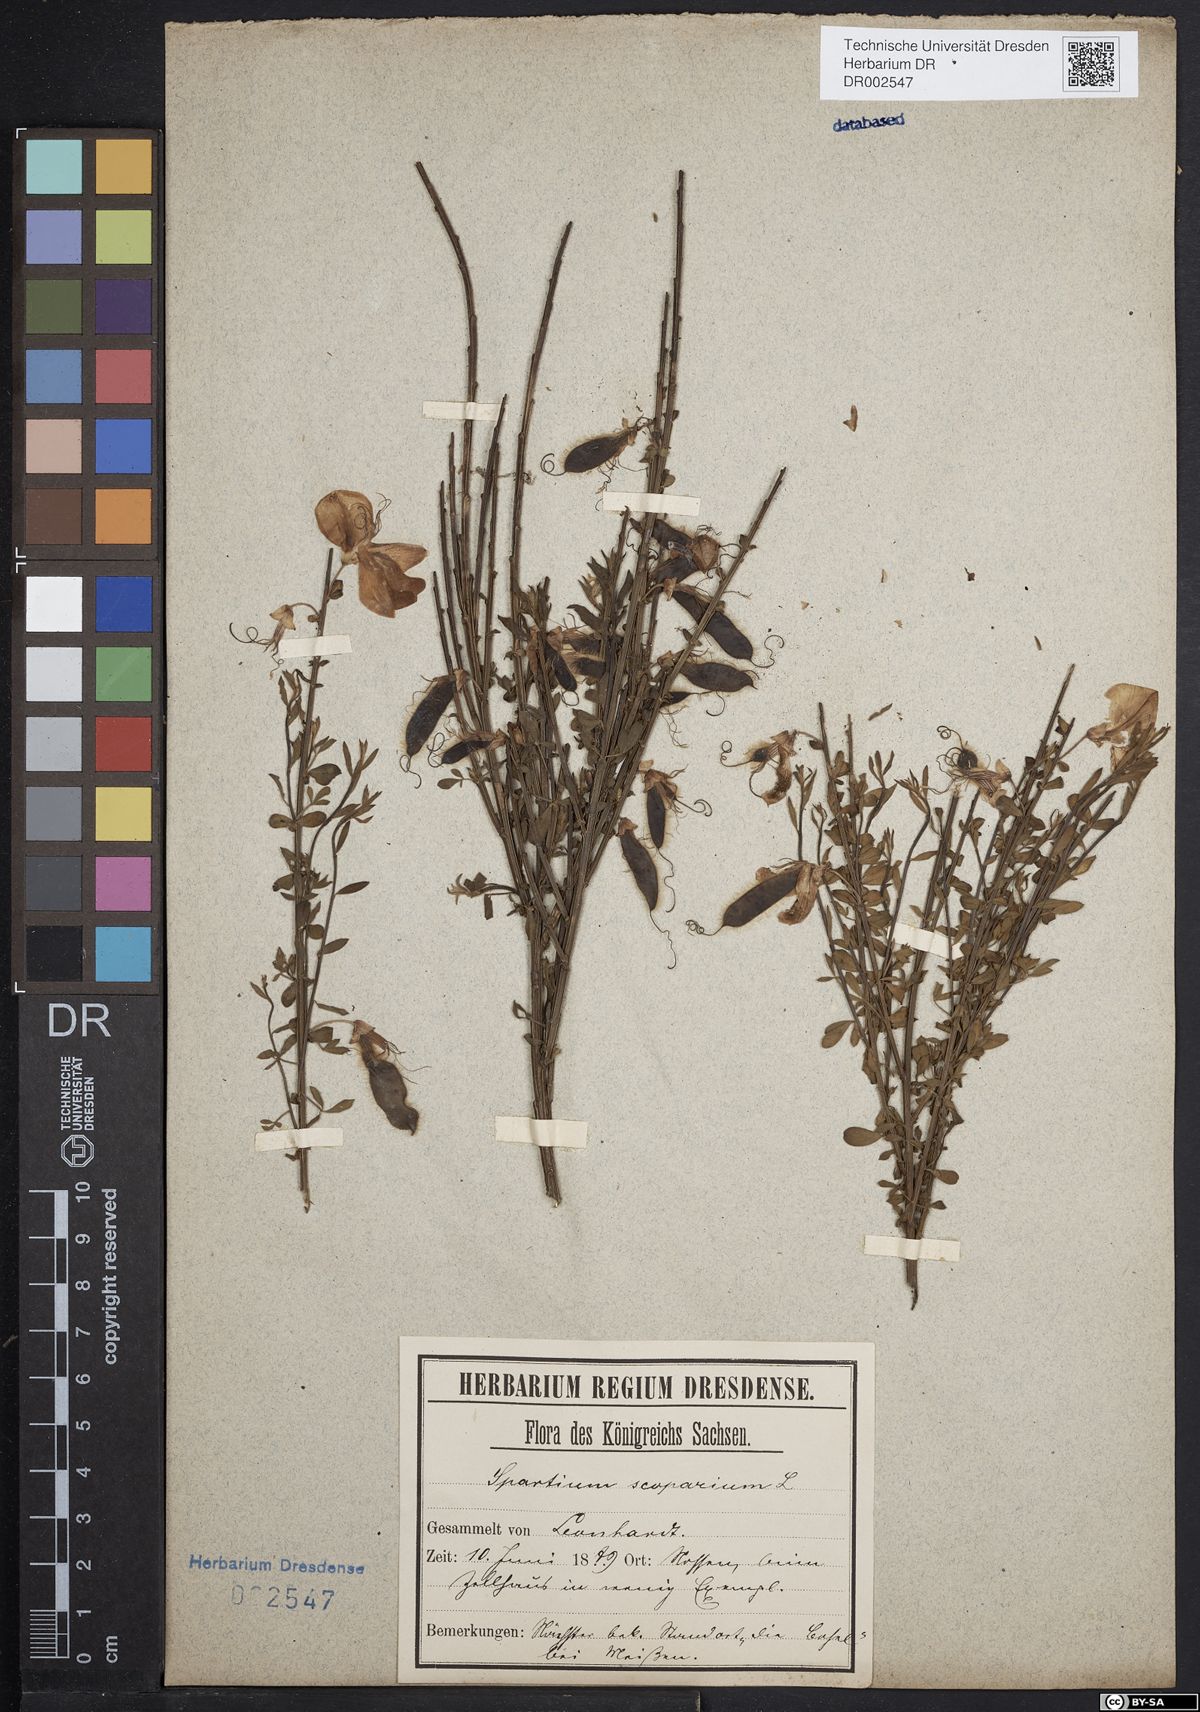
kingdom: Plantae
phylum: Tracheophyta
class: Magnoliopsida
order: Fabales
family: Fabaceae
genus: Cytisus
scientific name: Cytisus scoparius
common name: Scotch broom
